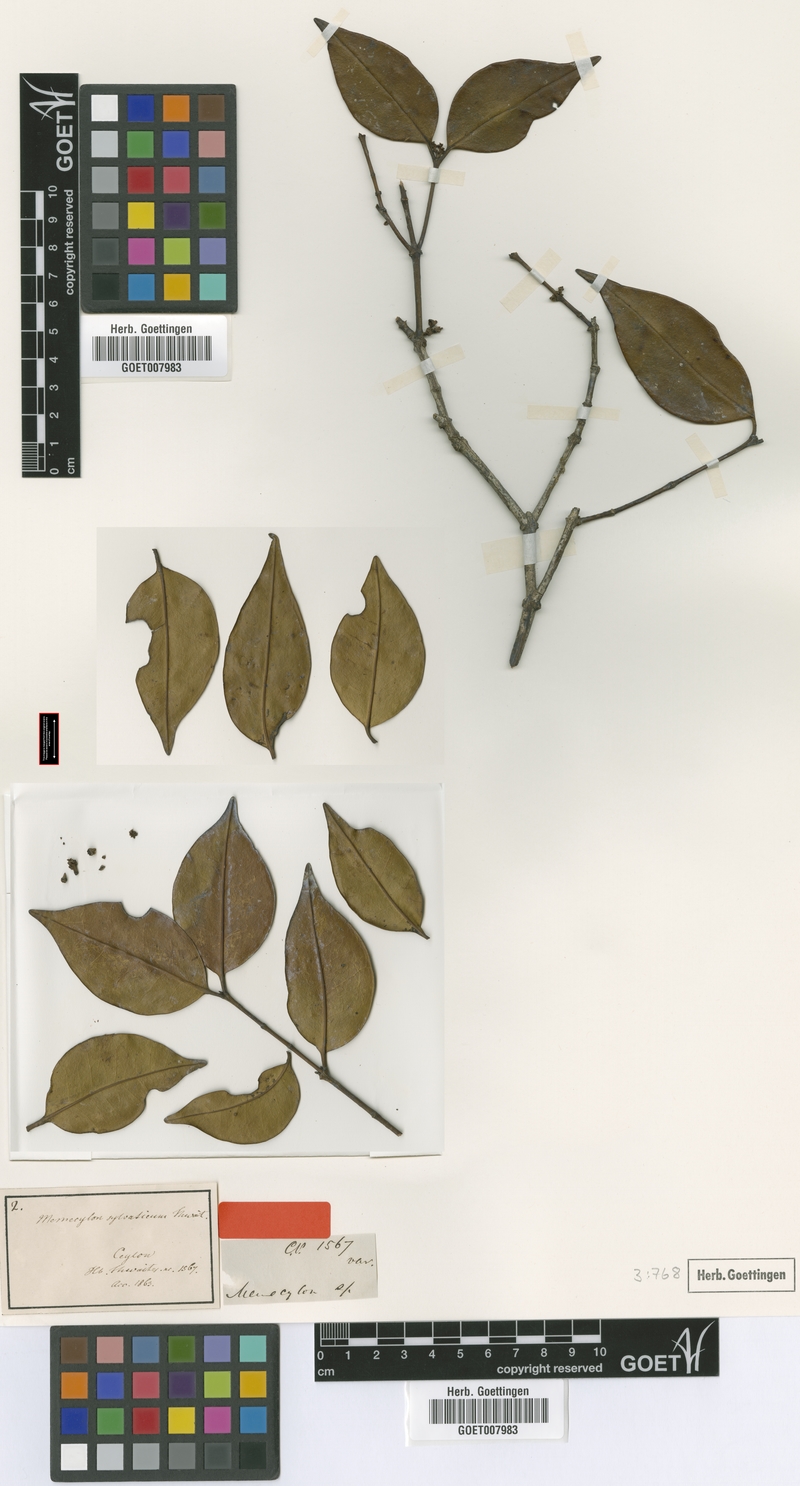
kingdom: Plantae
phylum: Tracheophyta
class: Magnoliopsida
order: Myrtales
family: Melastomataceae
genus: Memecylon
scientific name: Memecylon sylvaticum
